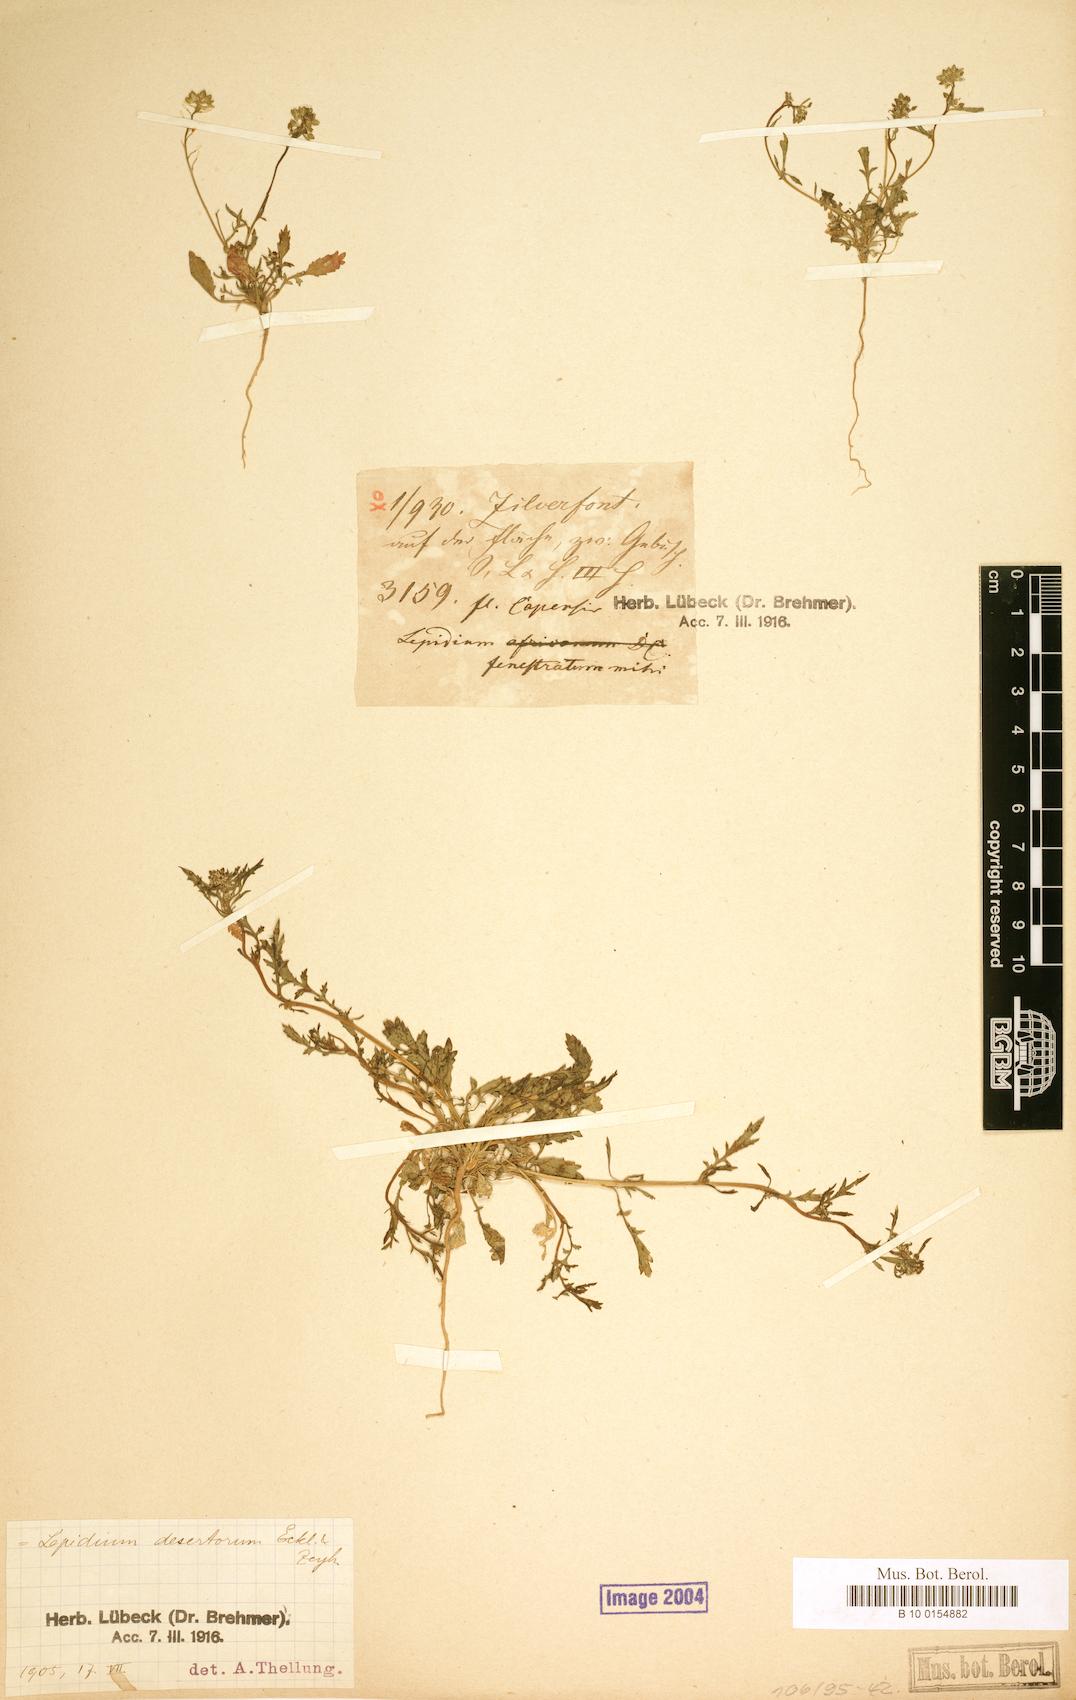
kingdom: Plantae
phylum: Tracheophyta
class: Magnoliopsida
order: Brassicales
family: Brassicaceae
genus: Lepidium
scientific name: Lepidium desertorum
